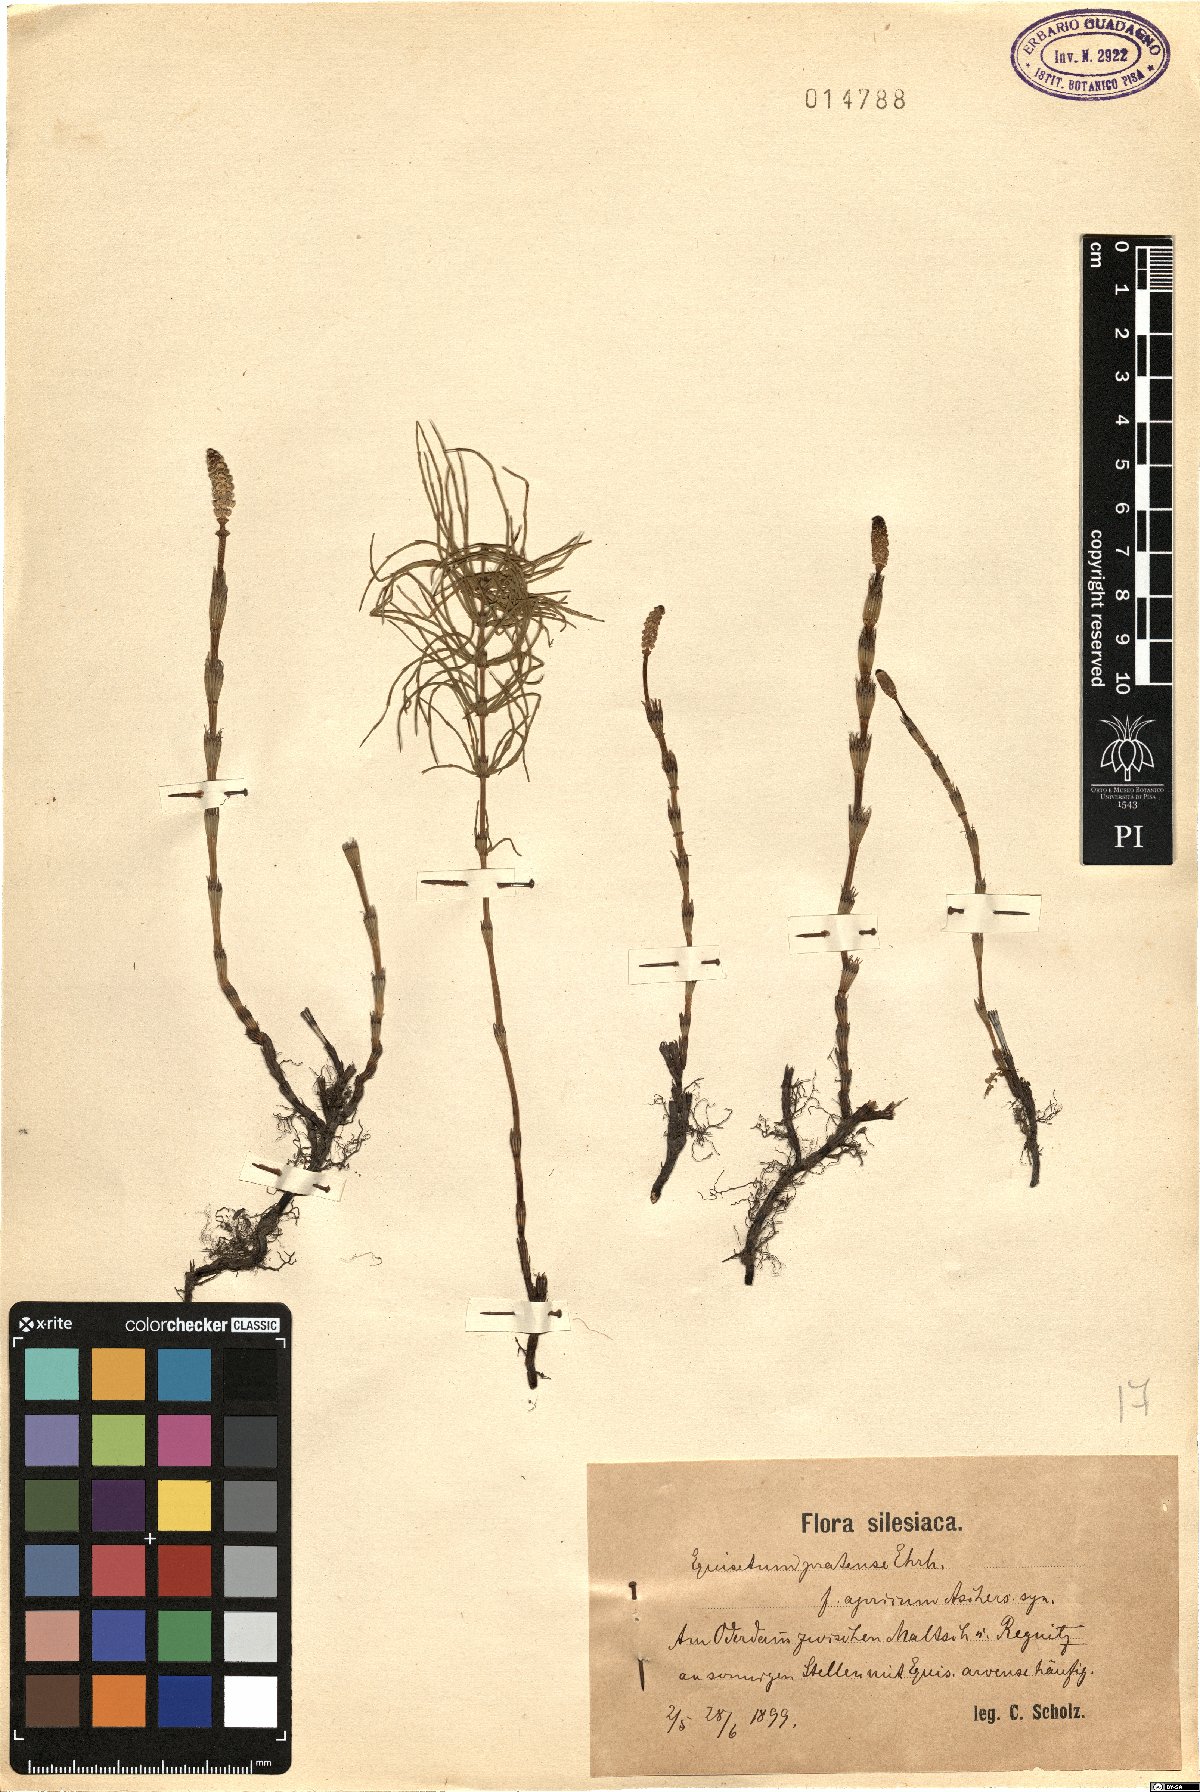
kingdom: Plantae
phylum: Tracheophyta
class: Polypodiopsida
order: Equisetales
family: Equisetaceae
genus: Equisetum
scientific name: Equisetum pratense
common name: Meadow horsetail
